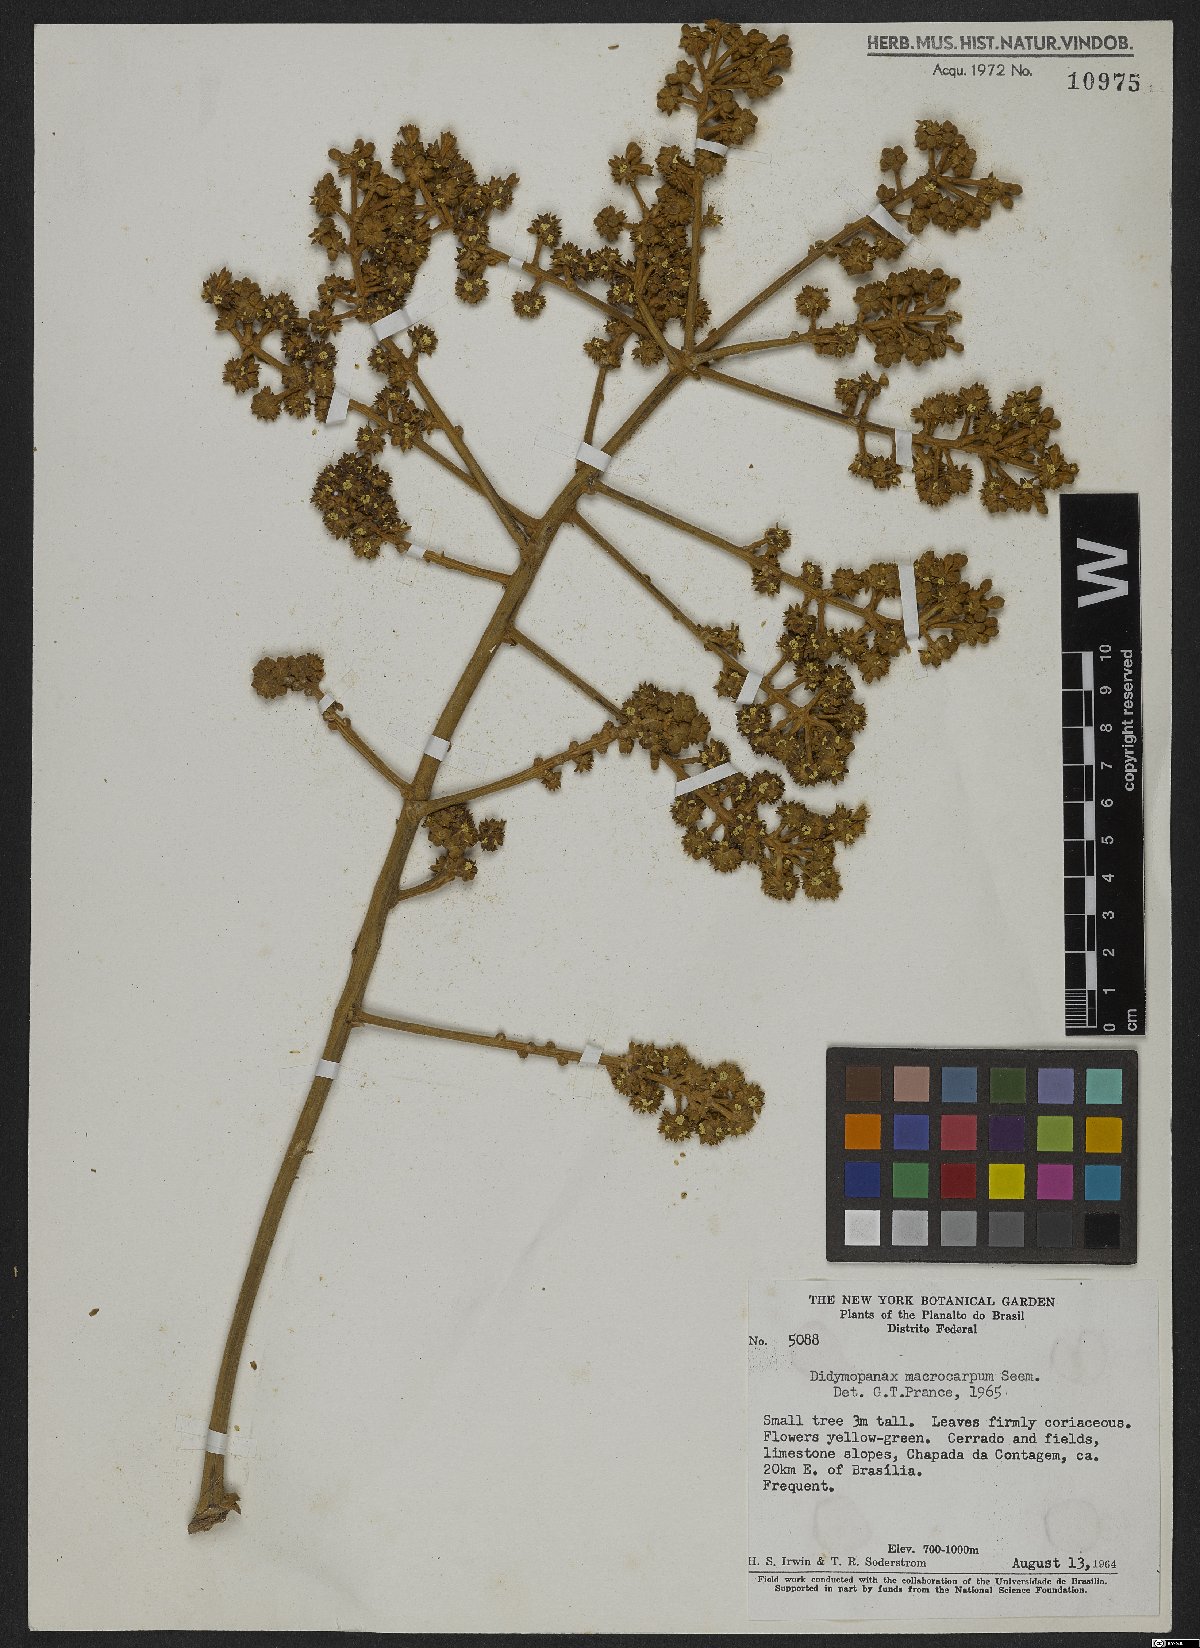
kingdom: Plantae
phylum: Tracheophyta
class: Magnoliopsida
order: Apiales
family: Araliaceae
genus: Didymopanax
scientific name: Didymopanax macrocarpus
